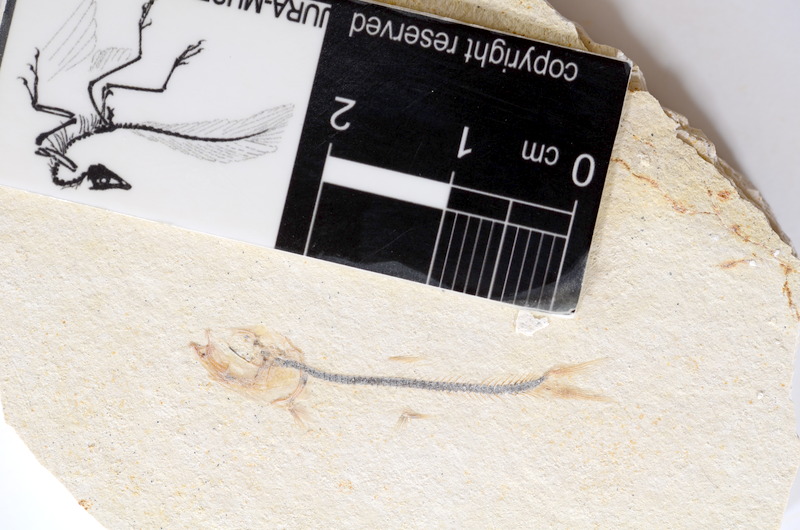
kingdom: Animalia
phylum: Chordata
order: Salmoniformes
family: Orthogonikleithridae
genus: Orthogonikleithrus
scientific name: Orthogonikleithrus hoelli
